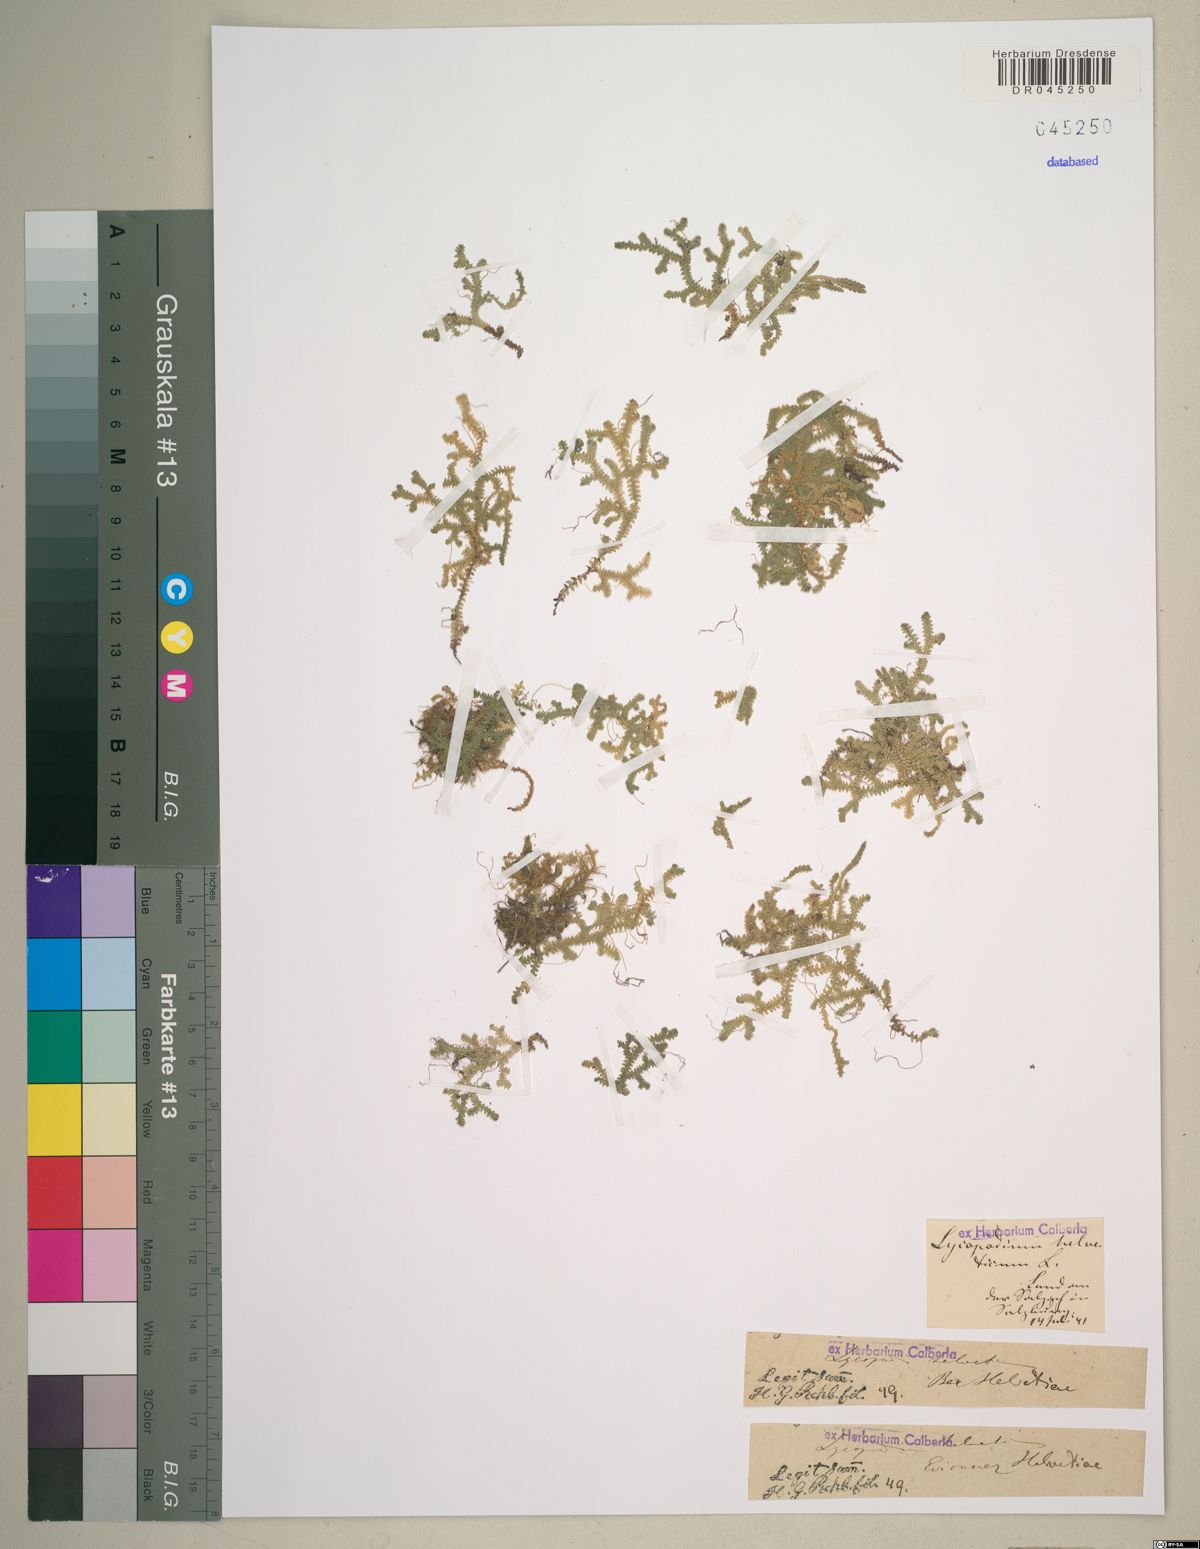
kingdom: Plantae
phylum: Tracheophyta
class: Lycopodiopsida
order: Selaginellales
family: Selaginellaceae
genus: Selaginella
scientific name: Selaginella helvetica
